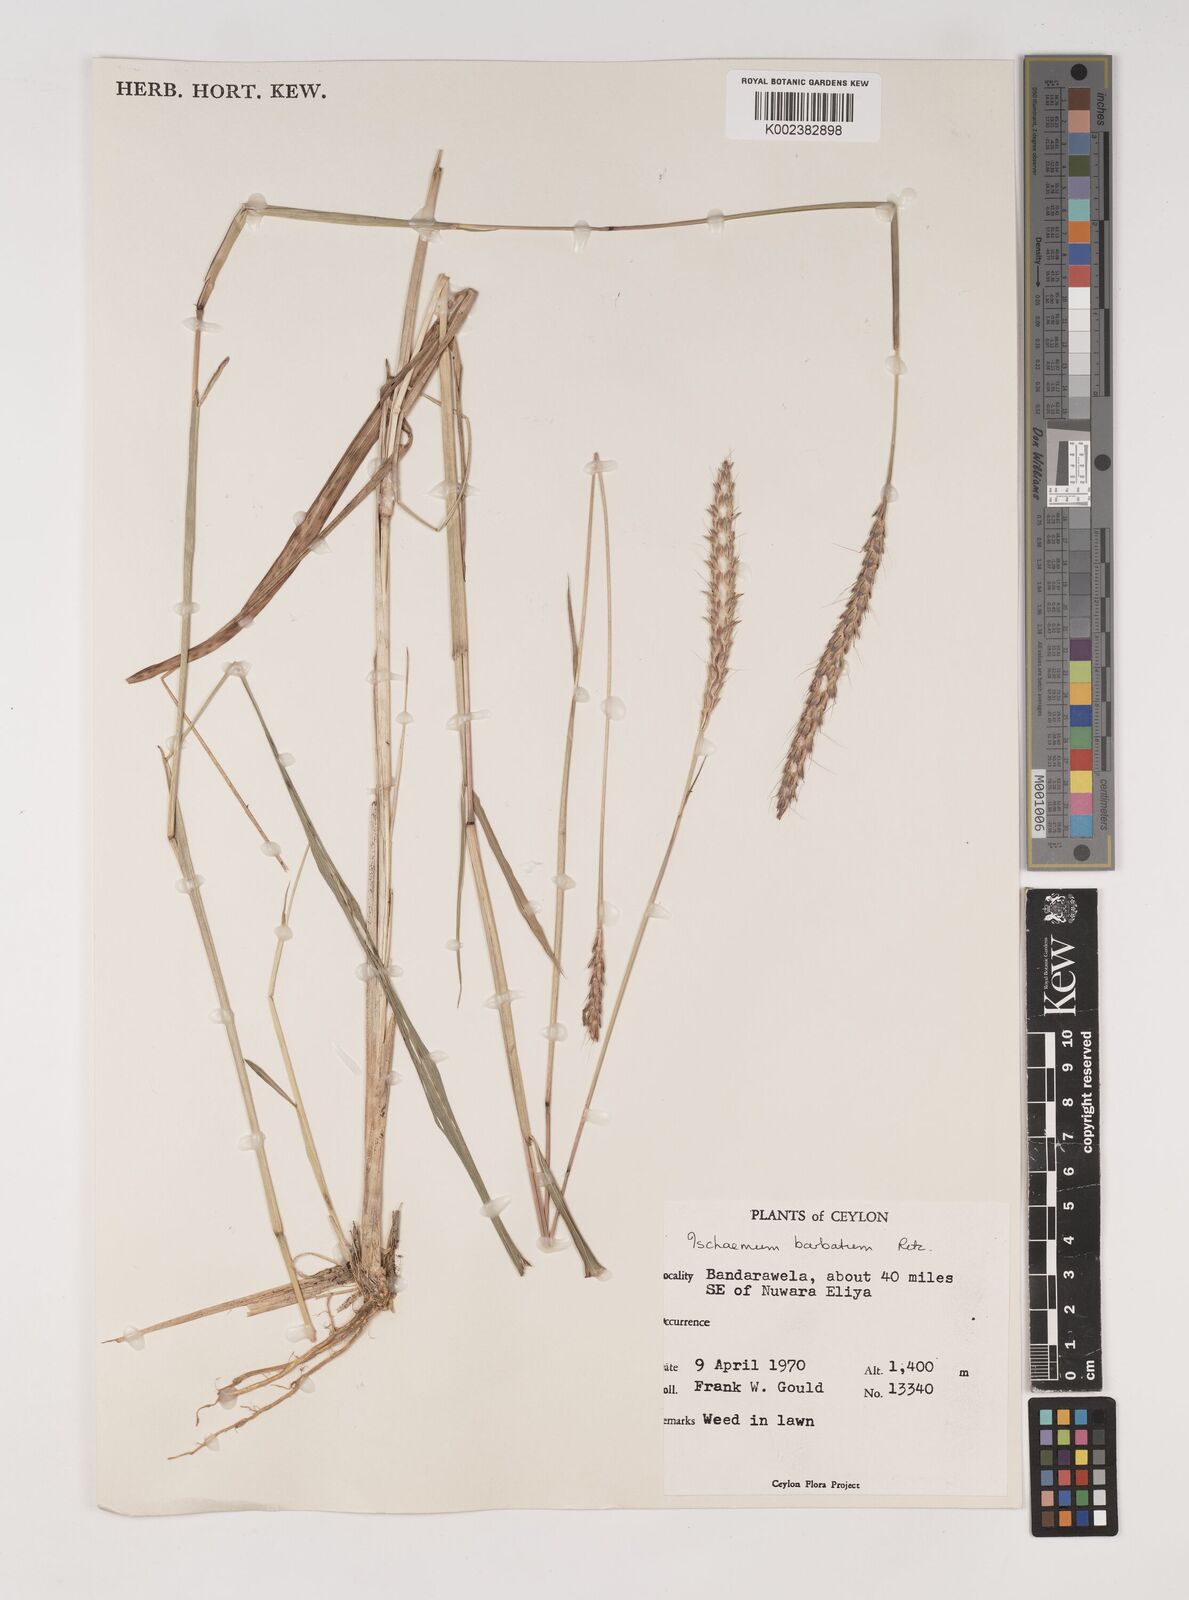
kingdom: Plantae
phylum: Tracheophyta
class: Liliopsida
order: Poales
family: Poaceae
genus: Ischaemum
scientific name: Ischaemum
